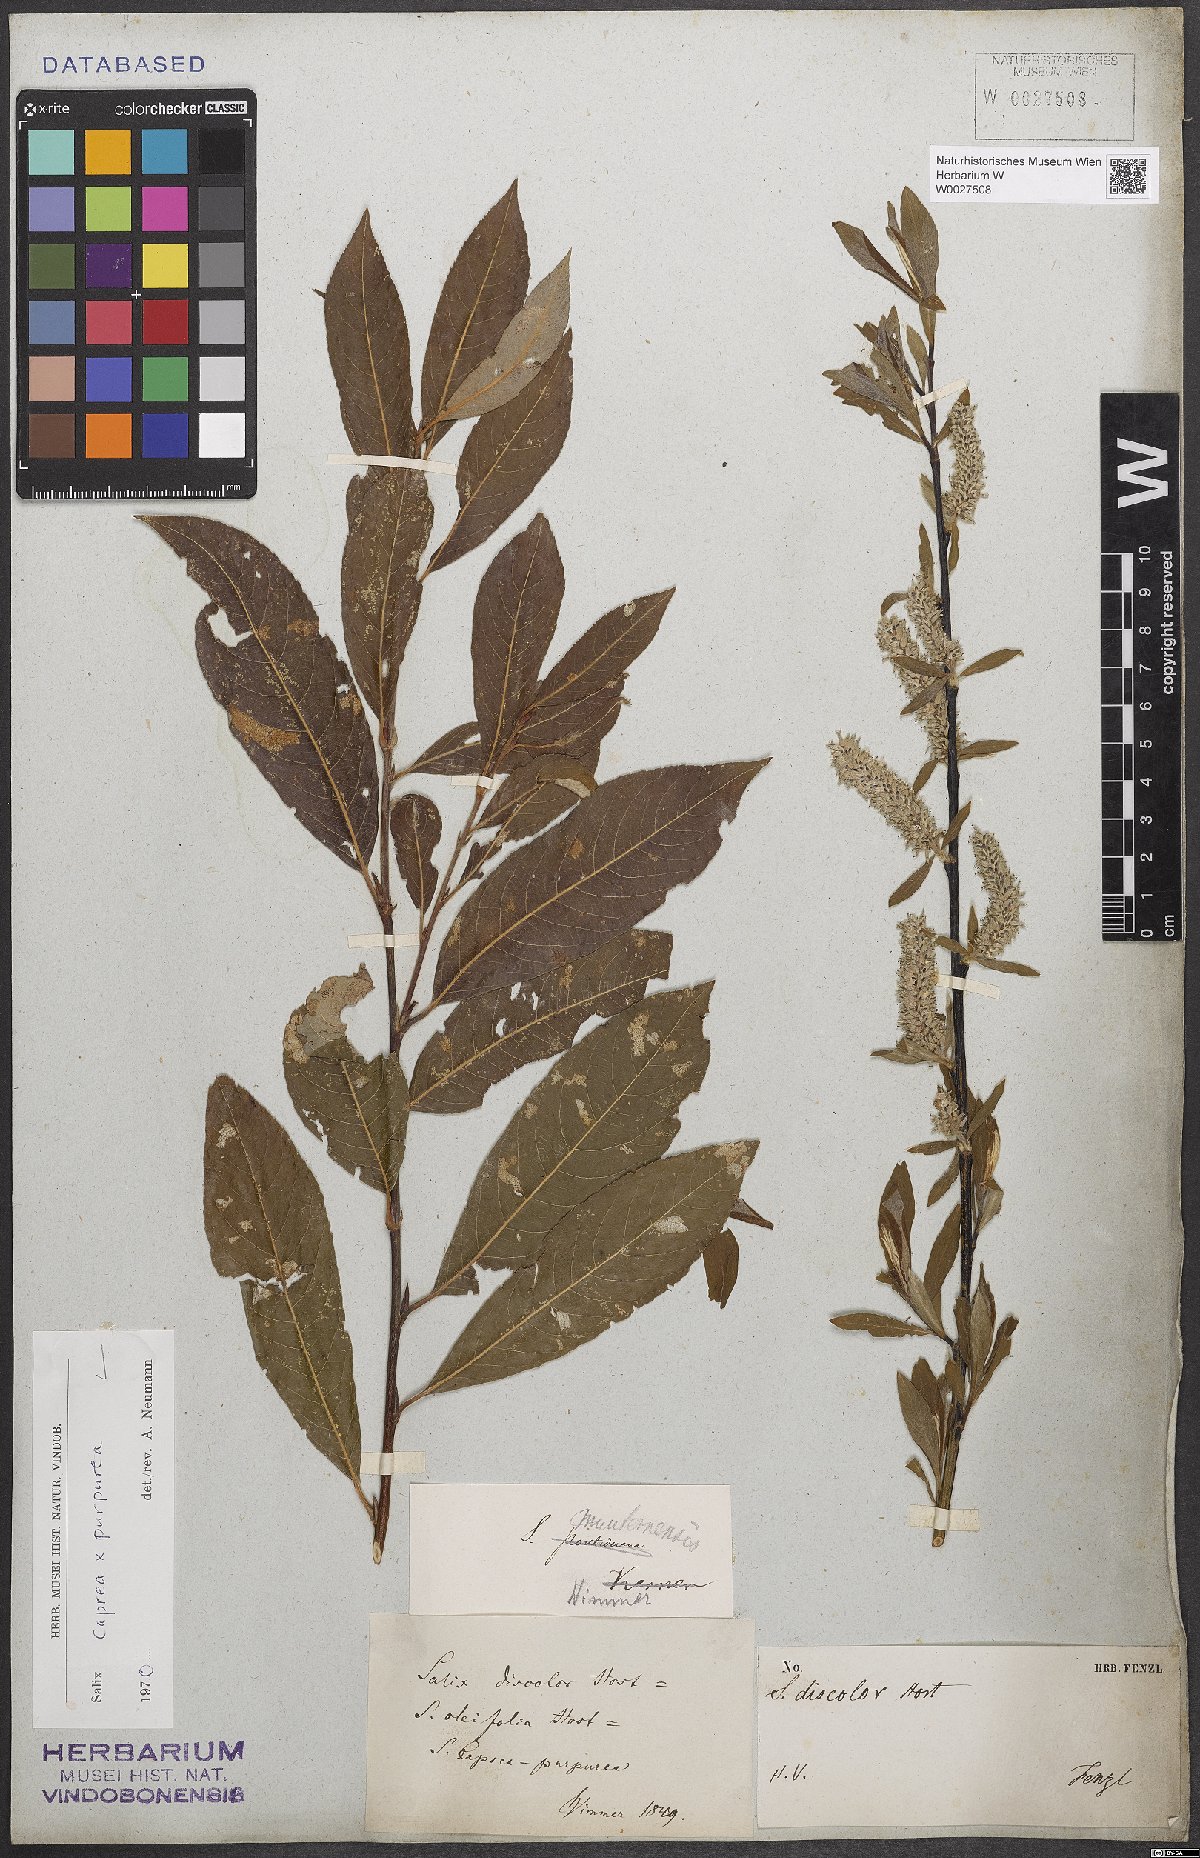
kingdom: Plantae
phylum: Tracheophyta
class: Magnoliopsida
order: Malpighiales
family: Salicaceae
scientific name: Salicaceae
